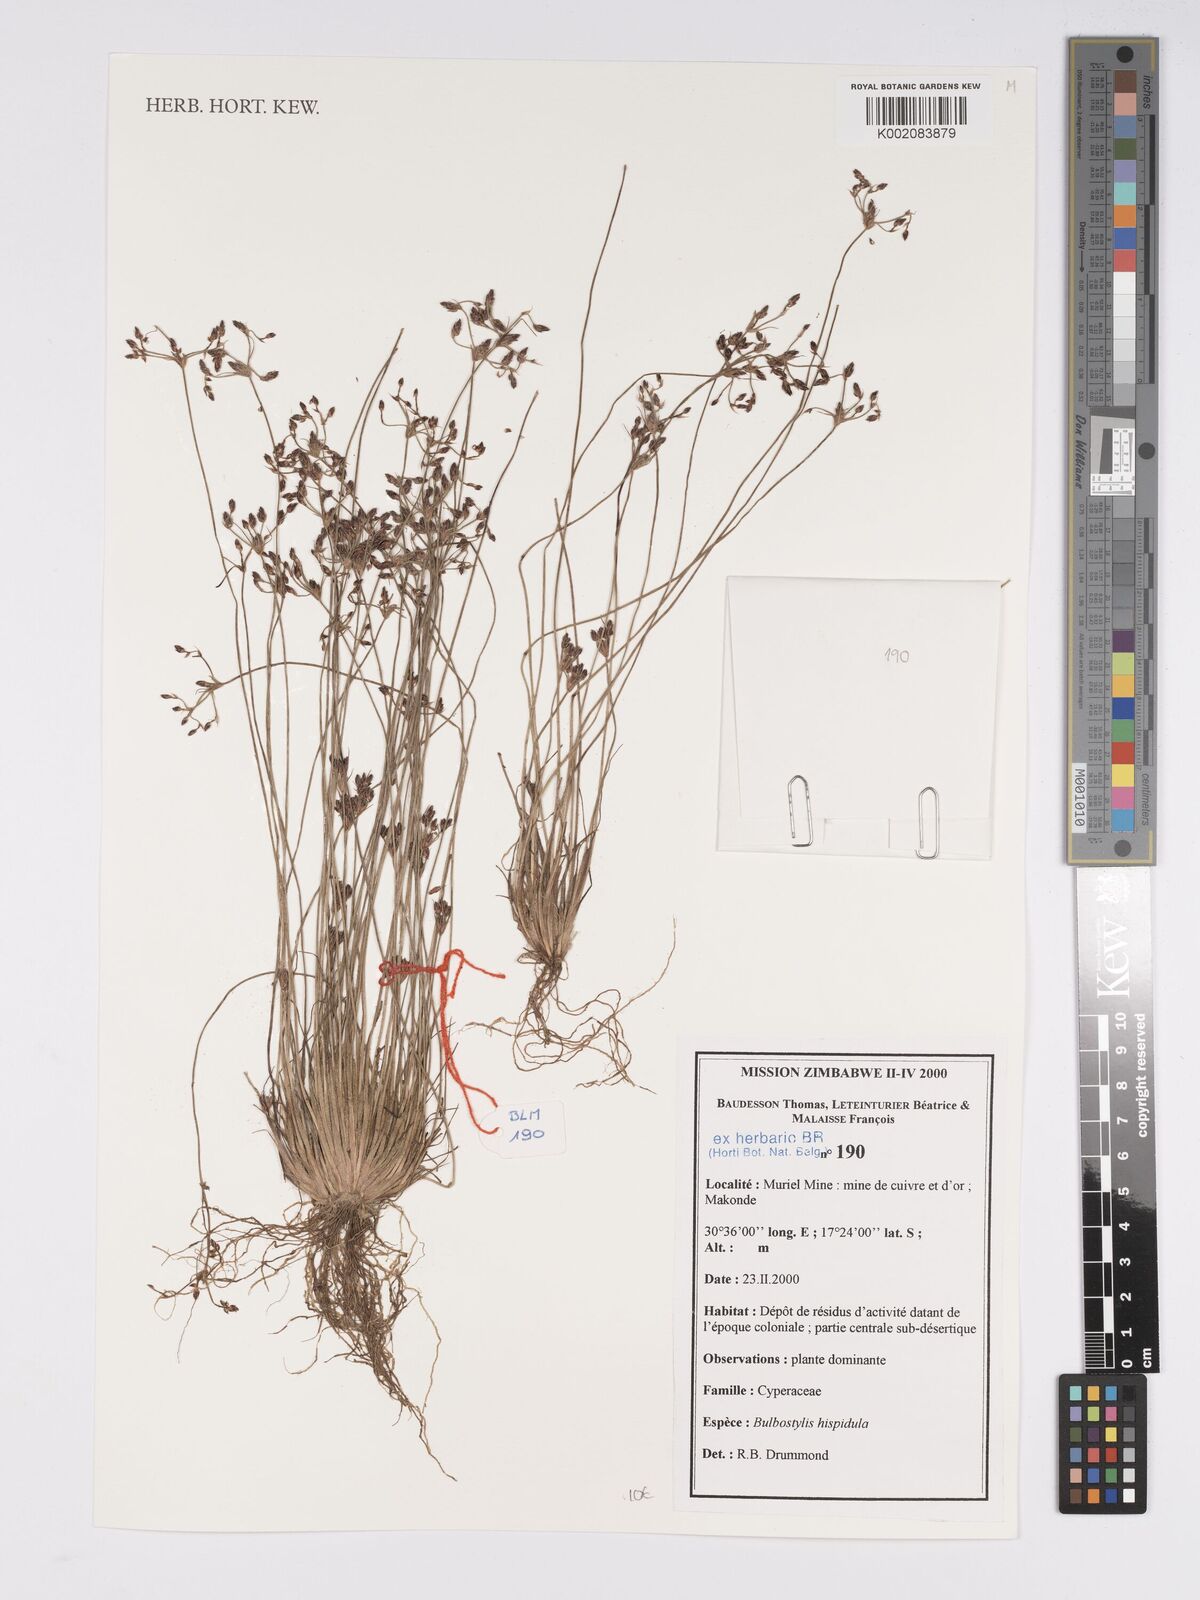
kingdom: Plantae
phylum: Tracheophyta
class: Liliopsida
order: Poales
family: Cyperaceae
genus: Bulbostylis
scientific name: Bulbostylis hispidula
